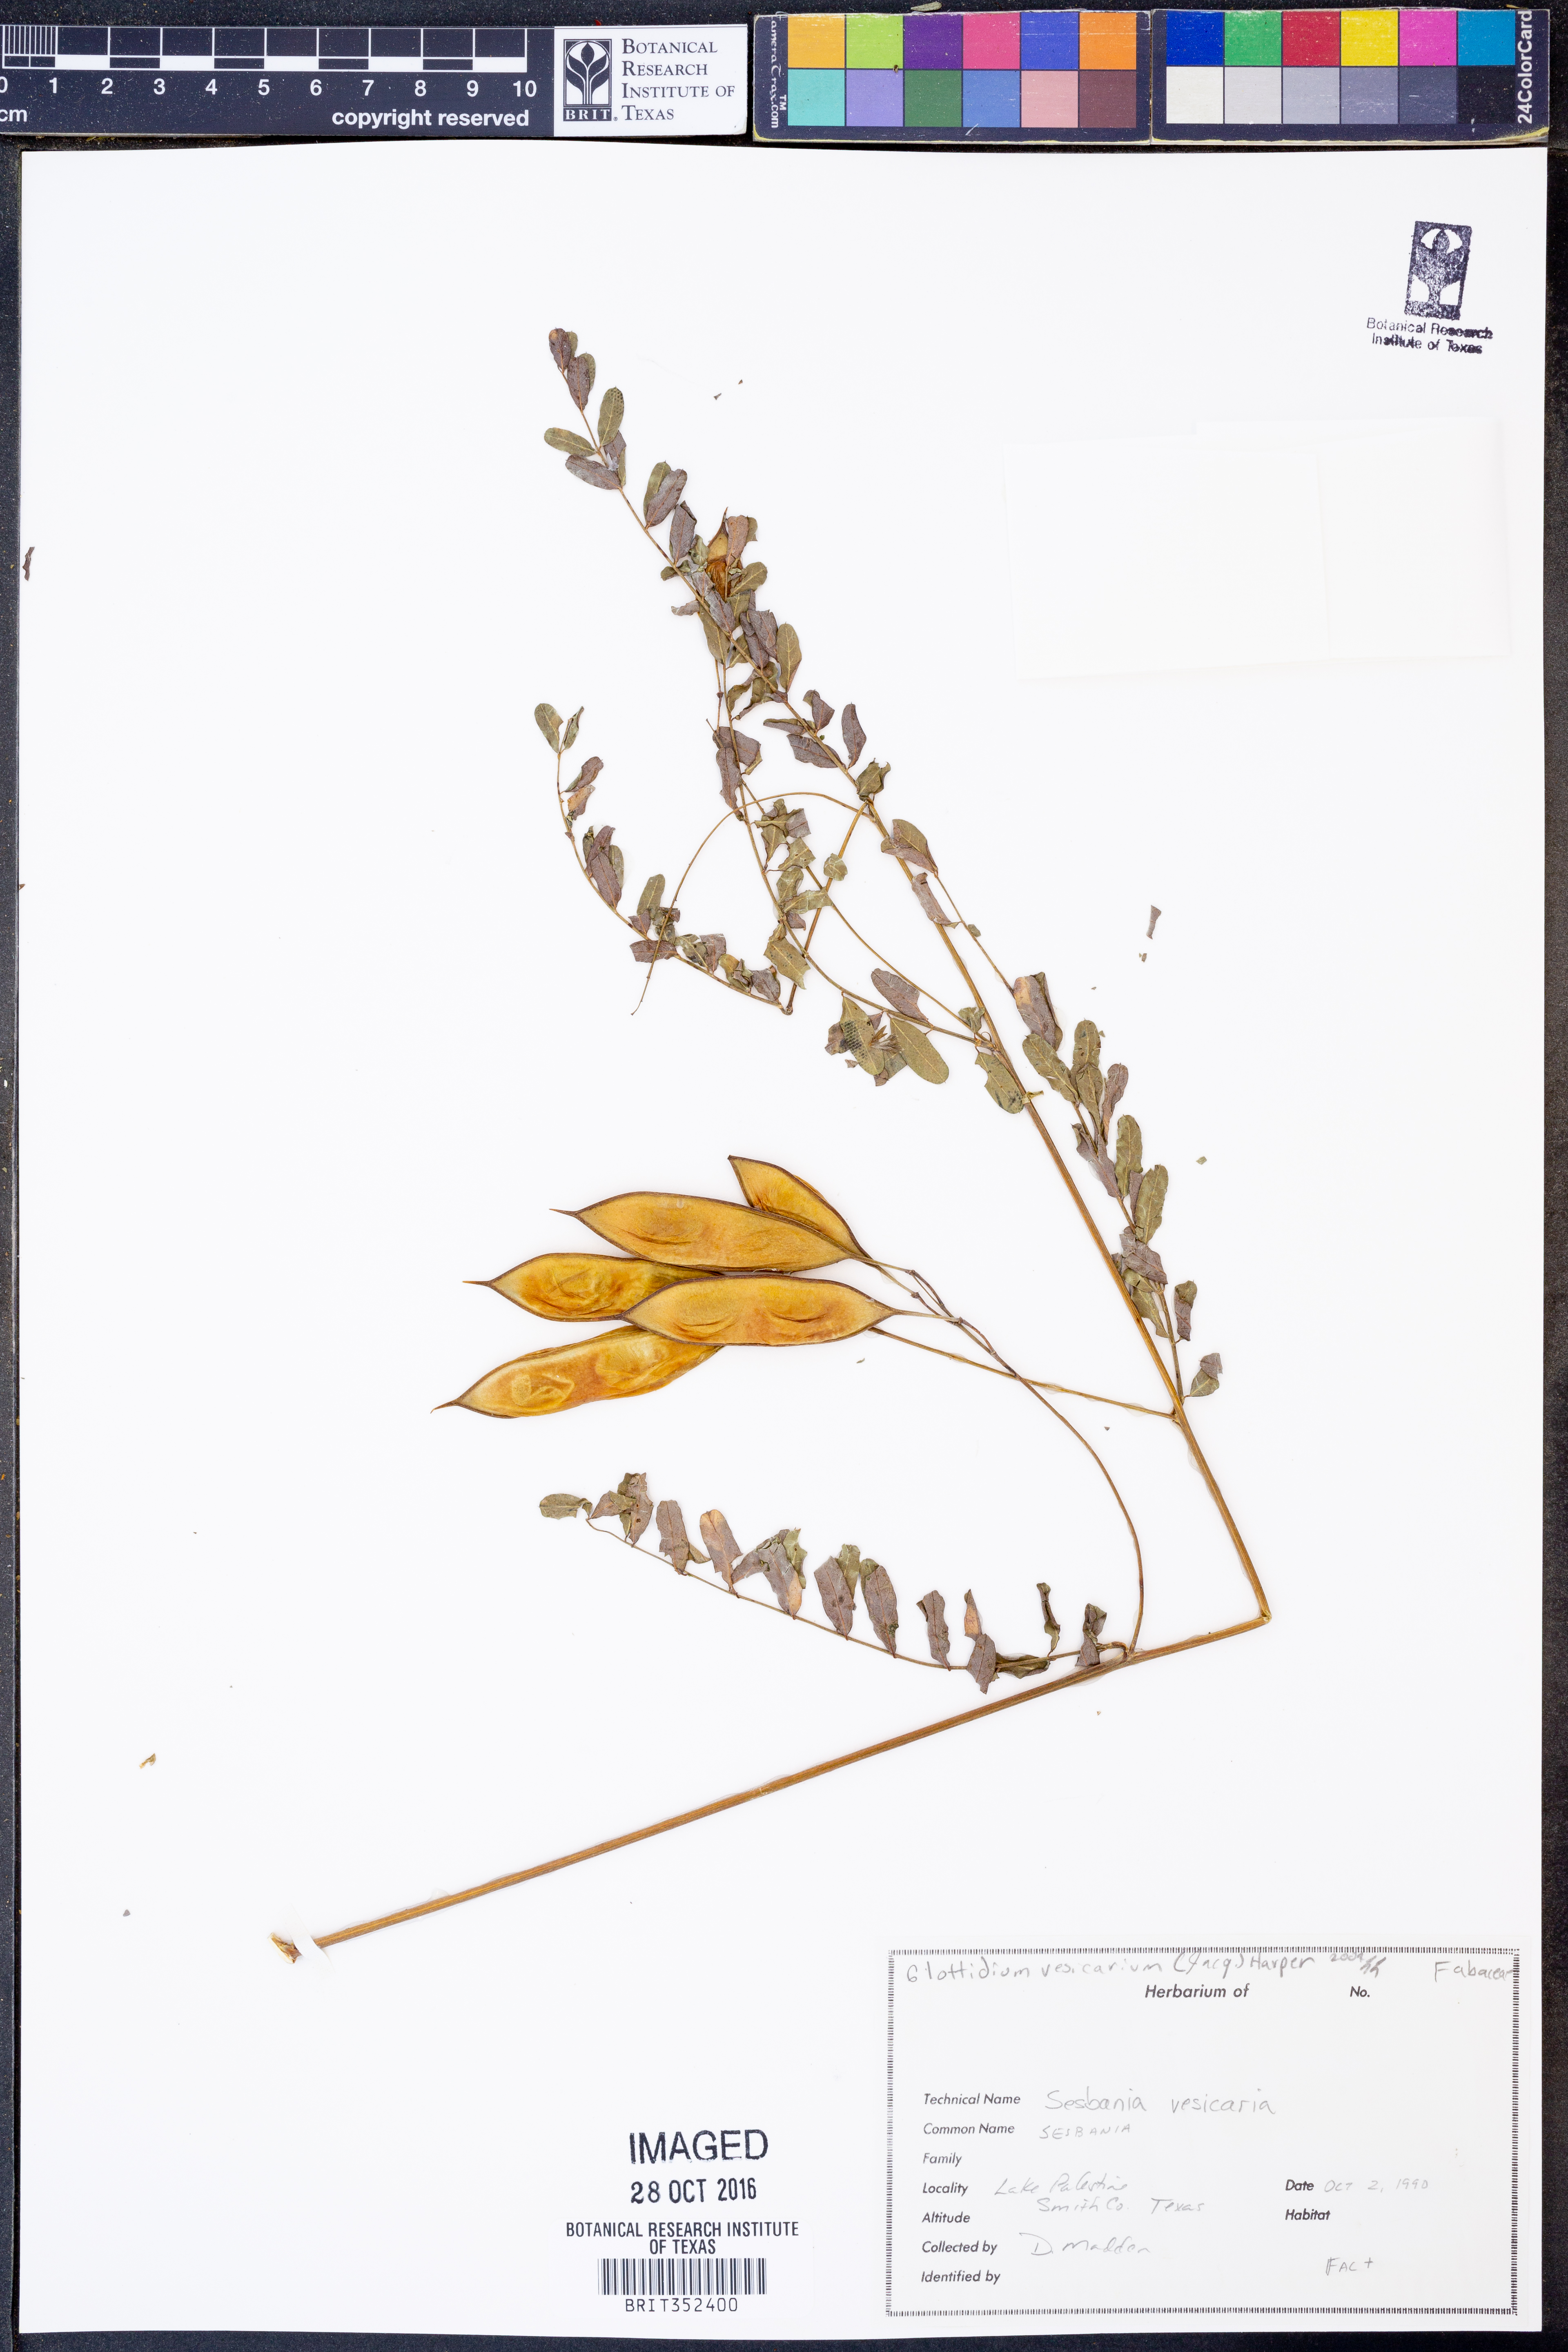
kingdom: Plantae
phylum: Tracheophyta
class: Magnoliopsida
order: Fabales
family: Fabaceae
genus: Sesbania
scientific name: Sesbania vesicaria
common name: Bagpod
